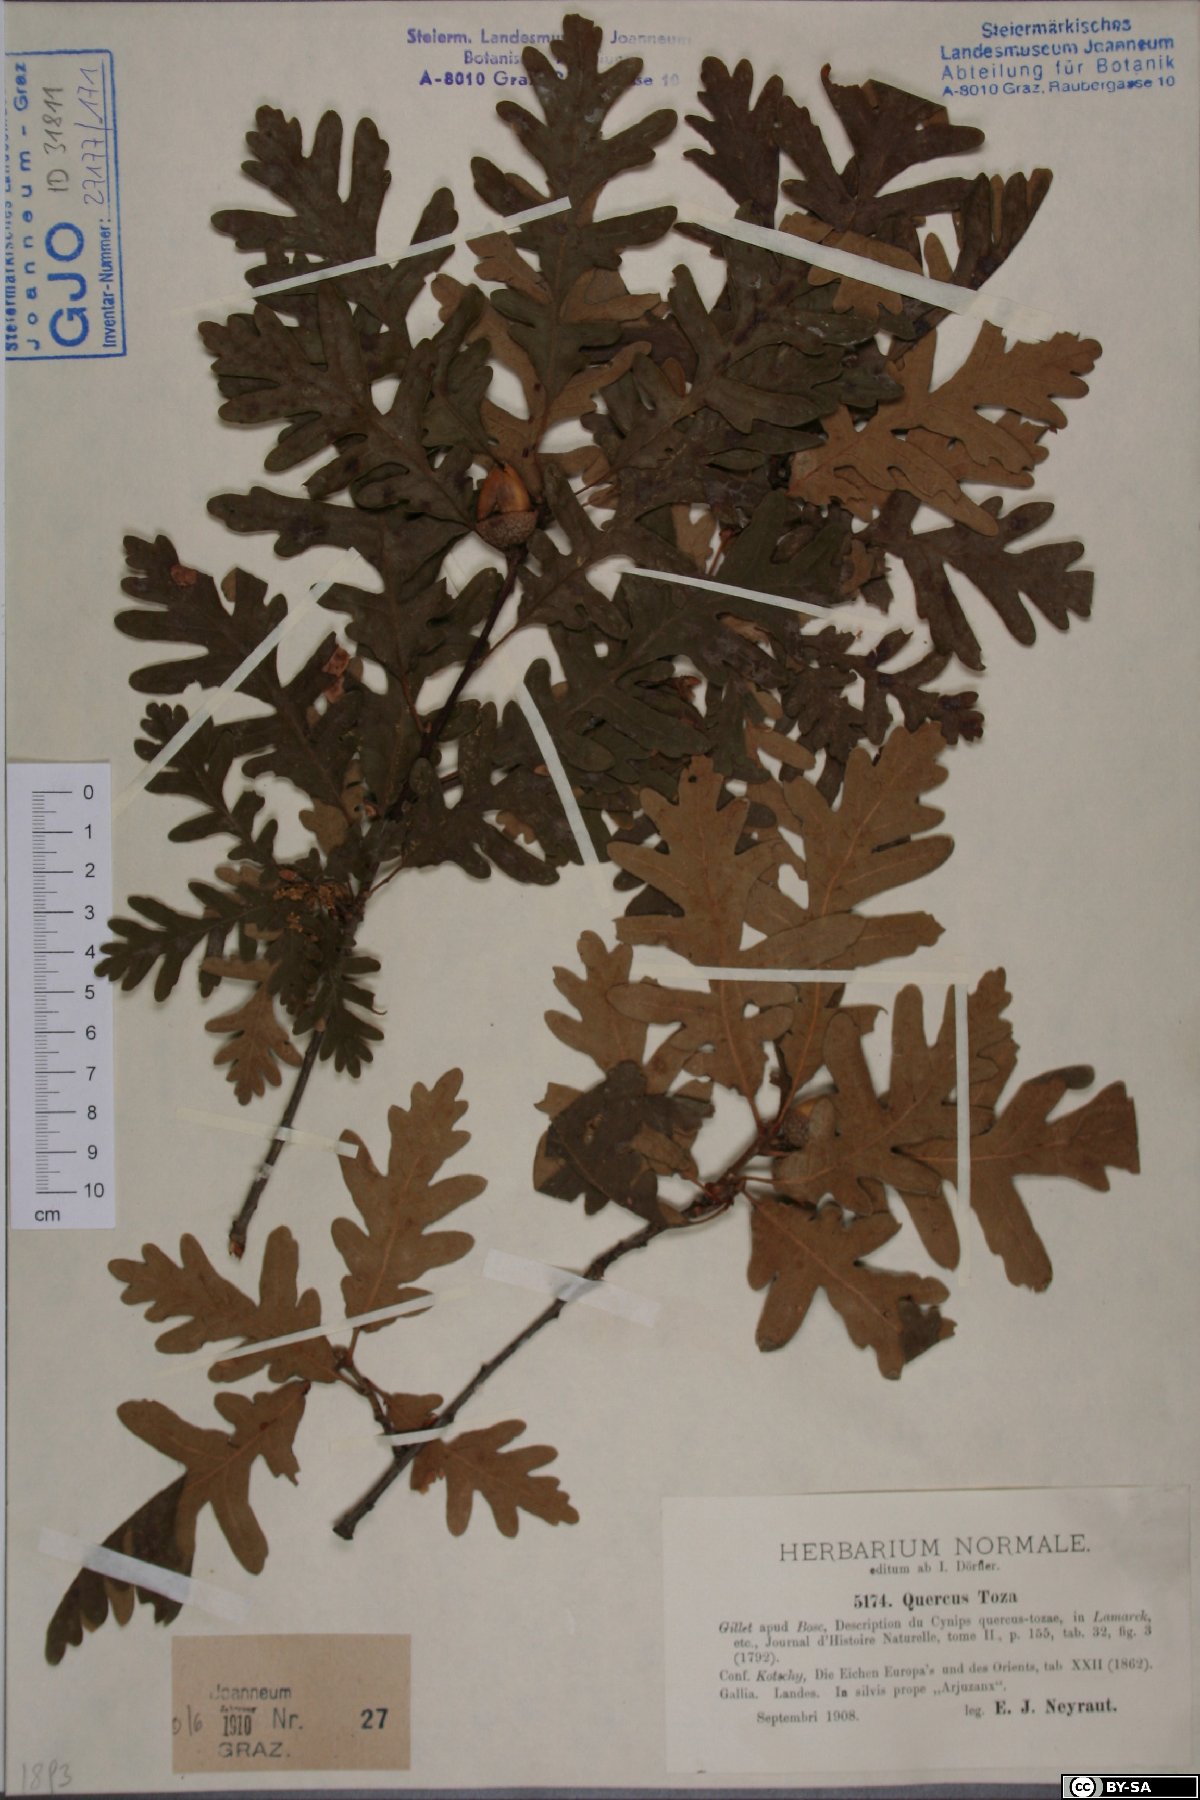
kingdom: Plantae
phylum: Tracheophyta
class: Magnoliopsida
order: Fagales
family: Fagaceae
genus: Quercus
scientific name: Quercus pyrenaica
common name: Pyrenean oak
